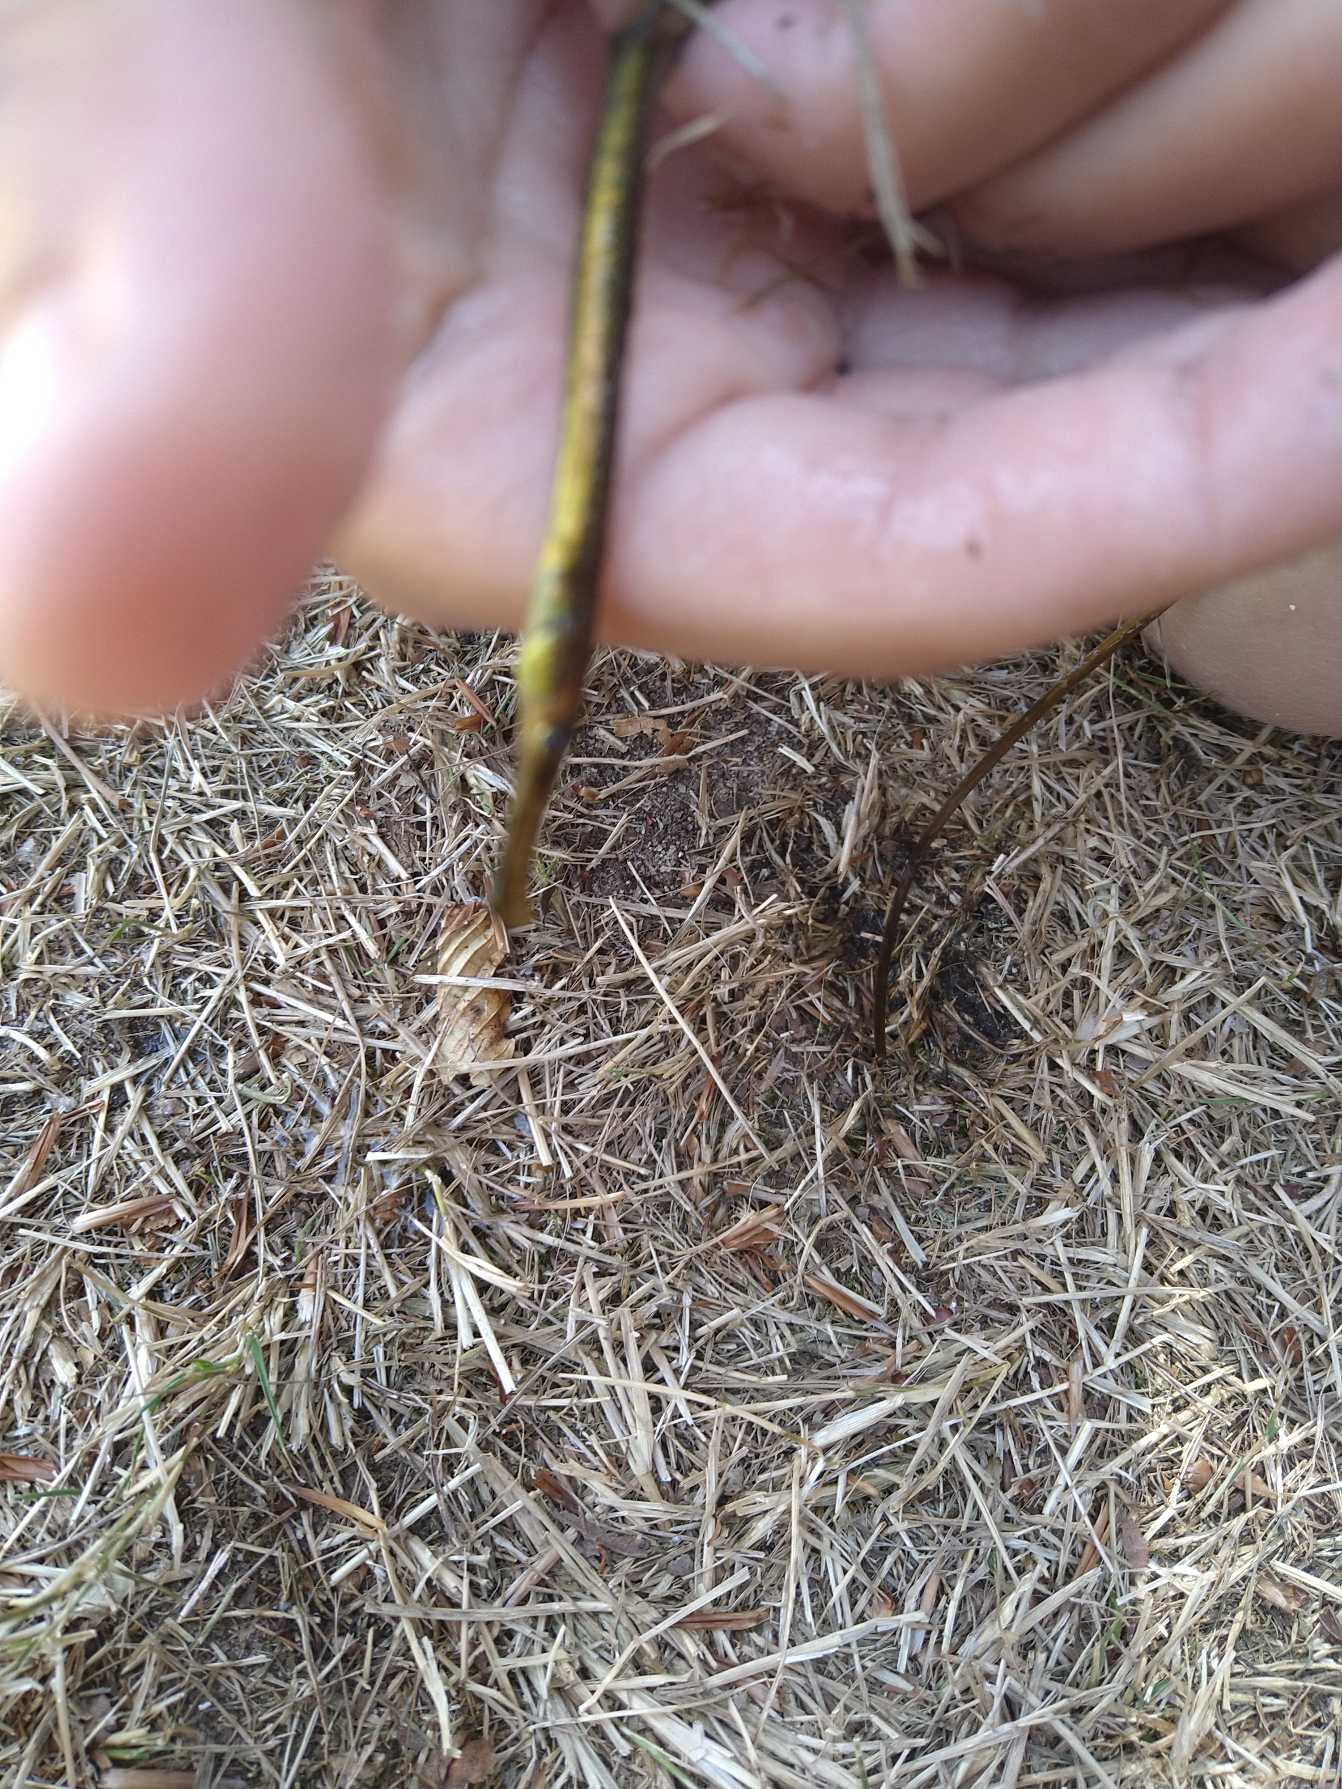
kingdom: Animalia
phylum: Chordata
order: Syngnathiformes
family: Syngnathidae
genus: Syngnathus
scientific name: Syngnathus typhle
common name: Almindelig tangnål
